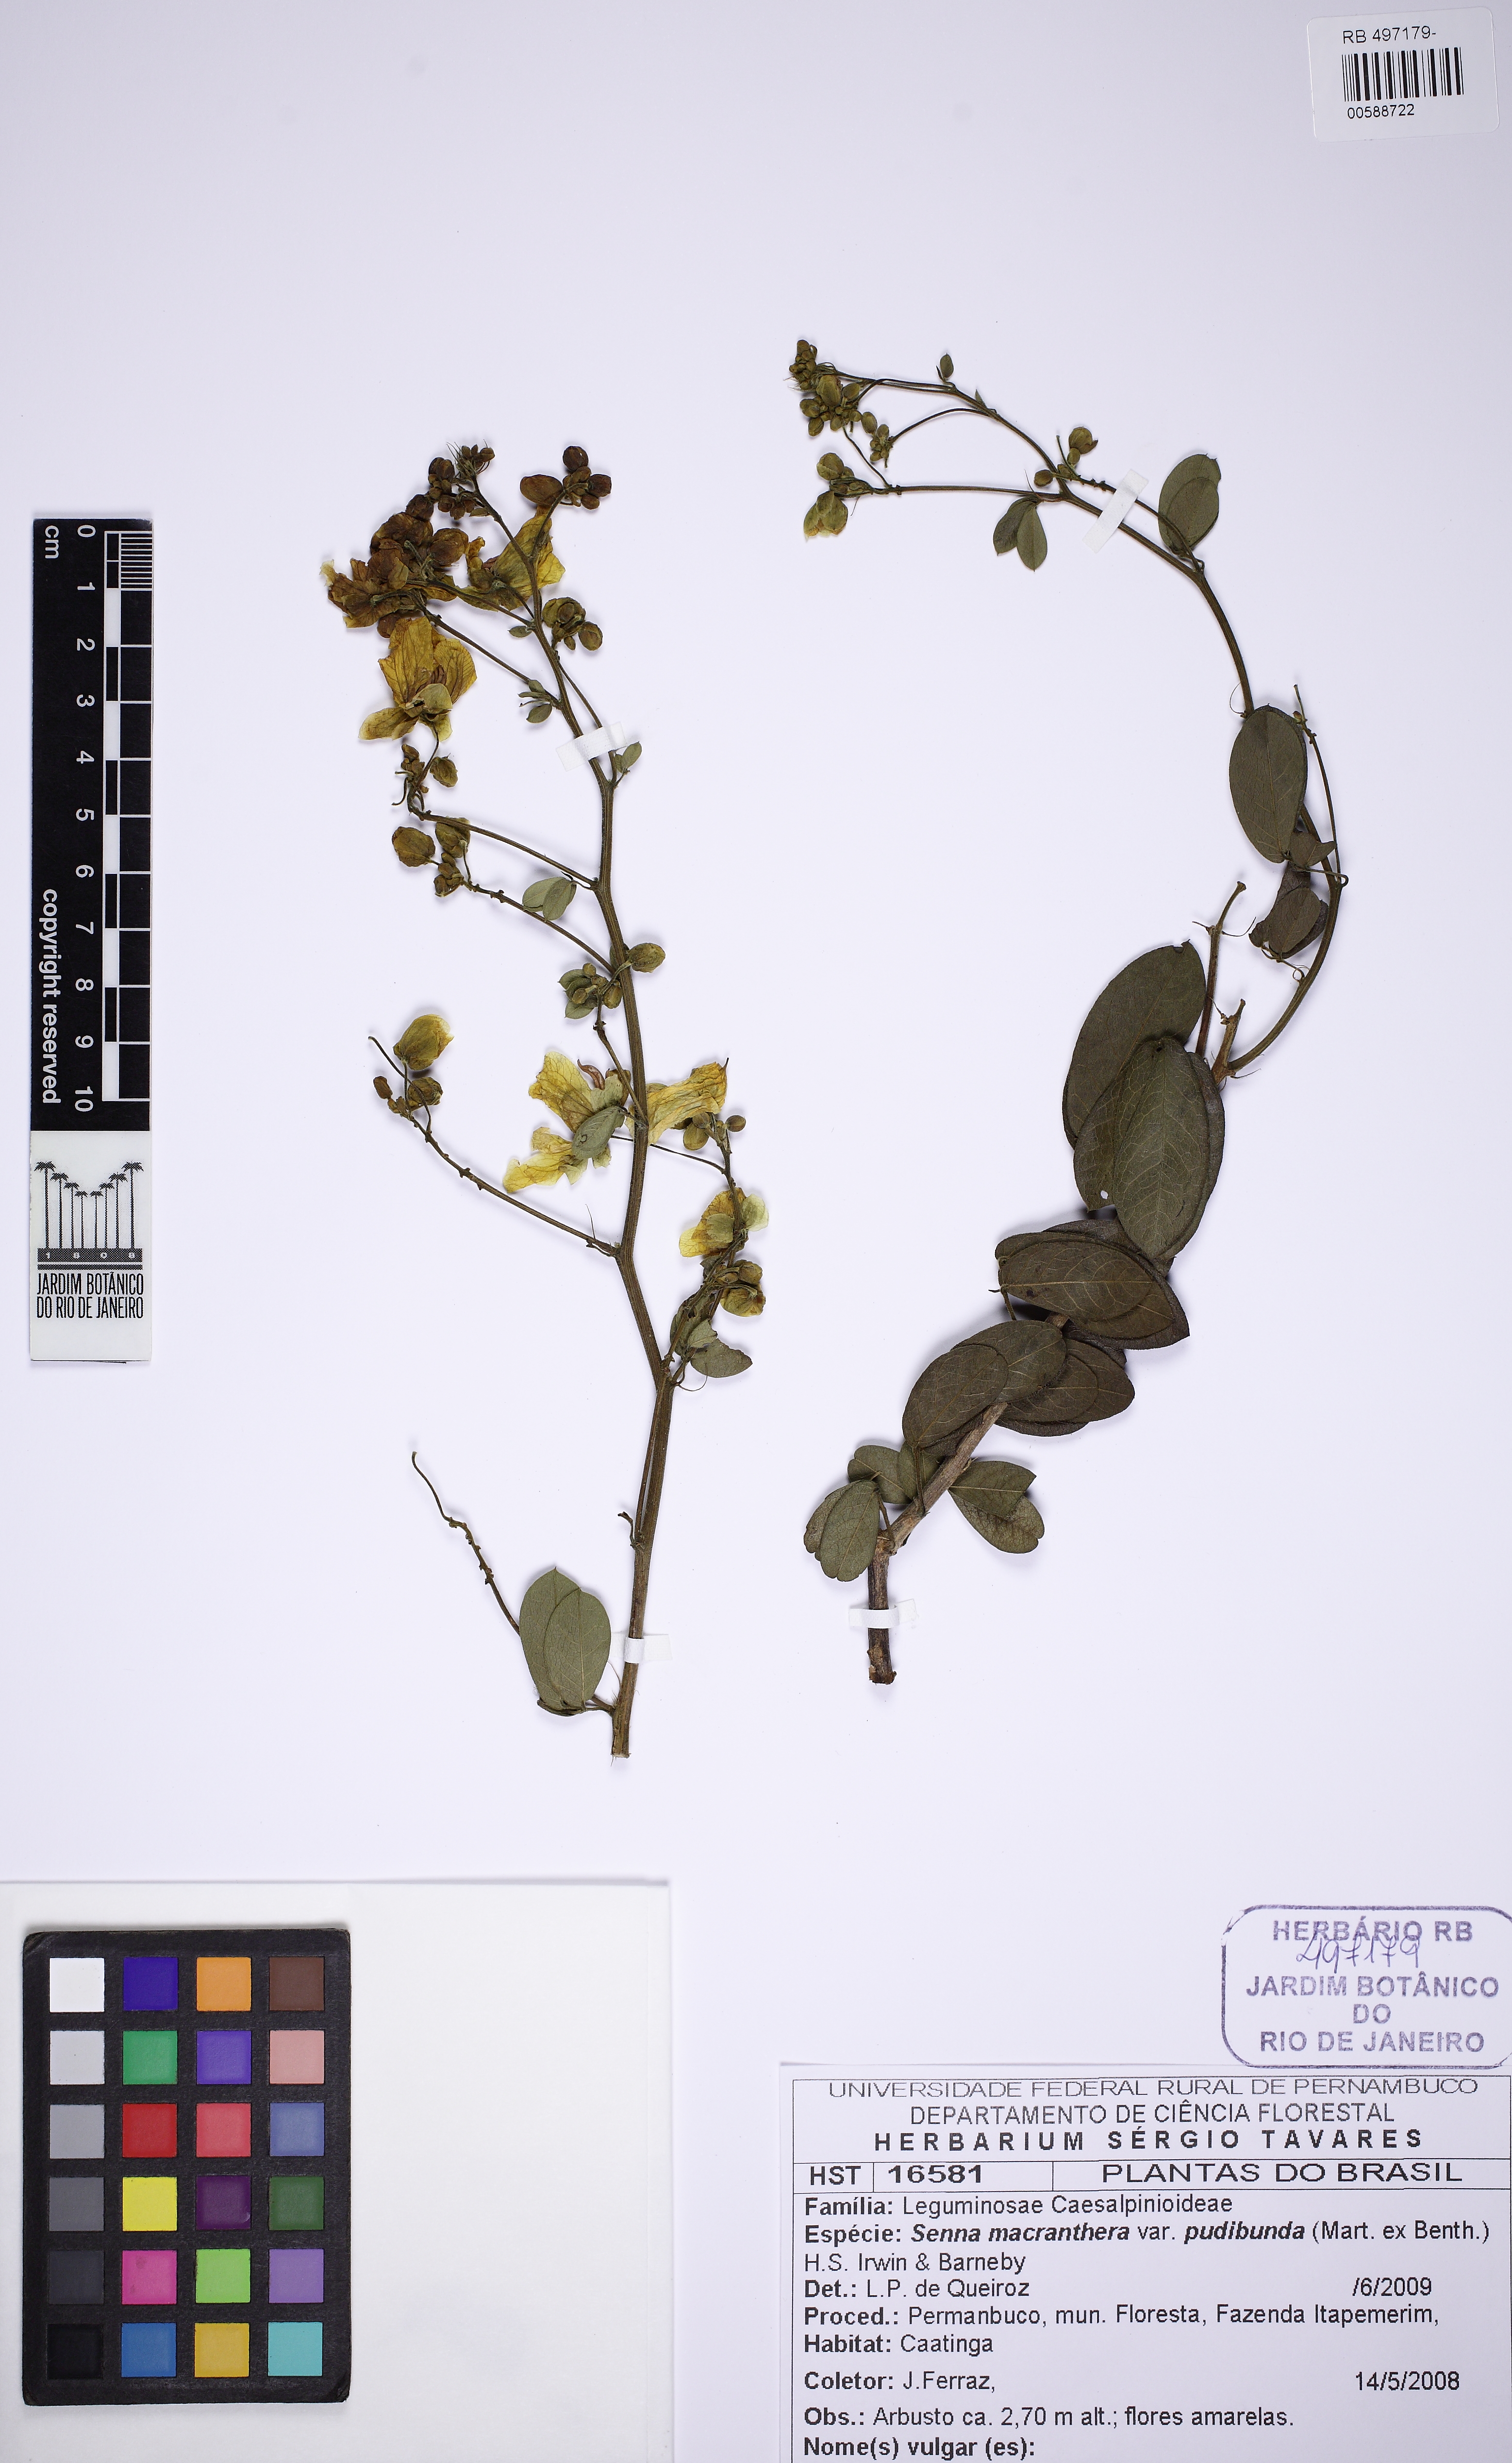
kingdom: Plantae
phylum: Tracheophyta
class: Magnoliopsida
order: Fabales
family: Fabaceae
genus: Senna
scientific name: Senna macranthera
